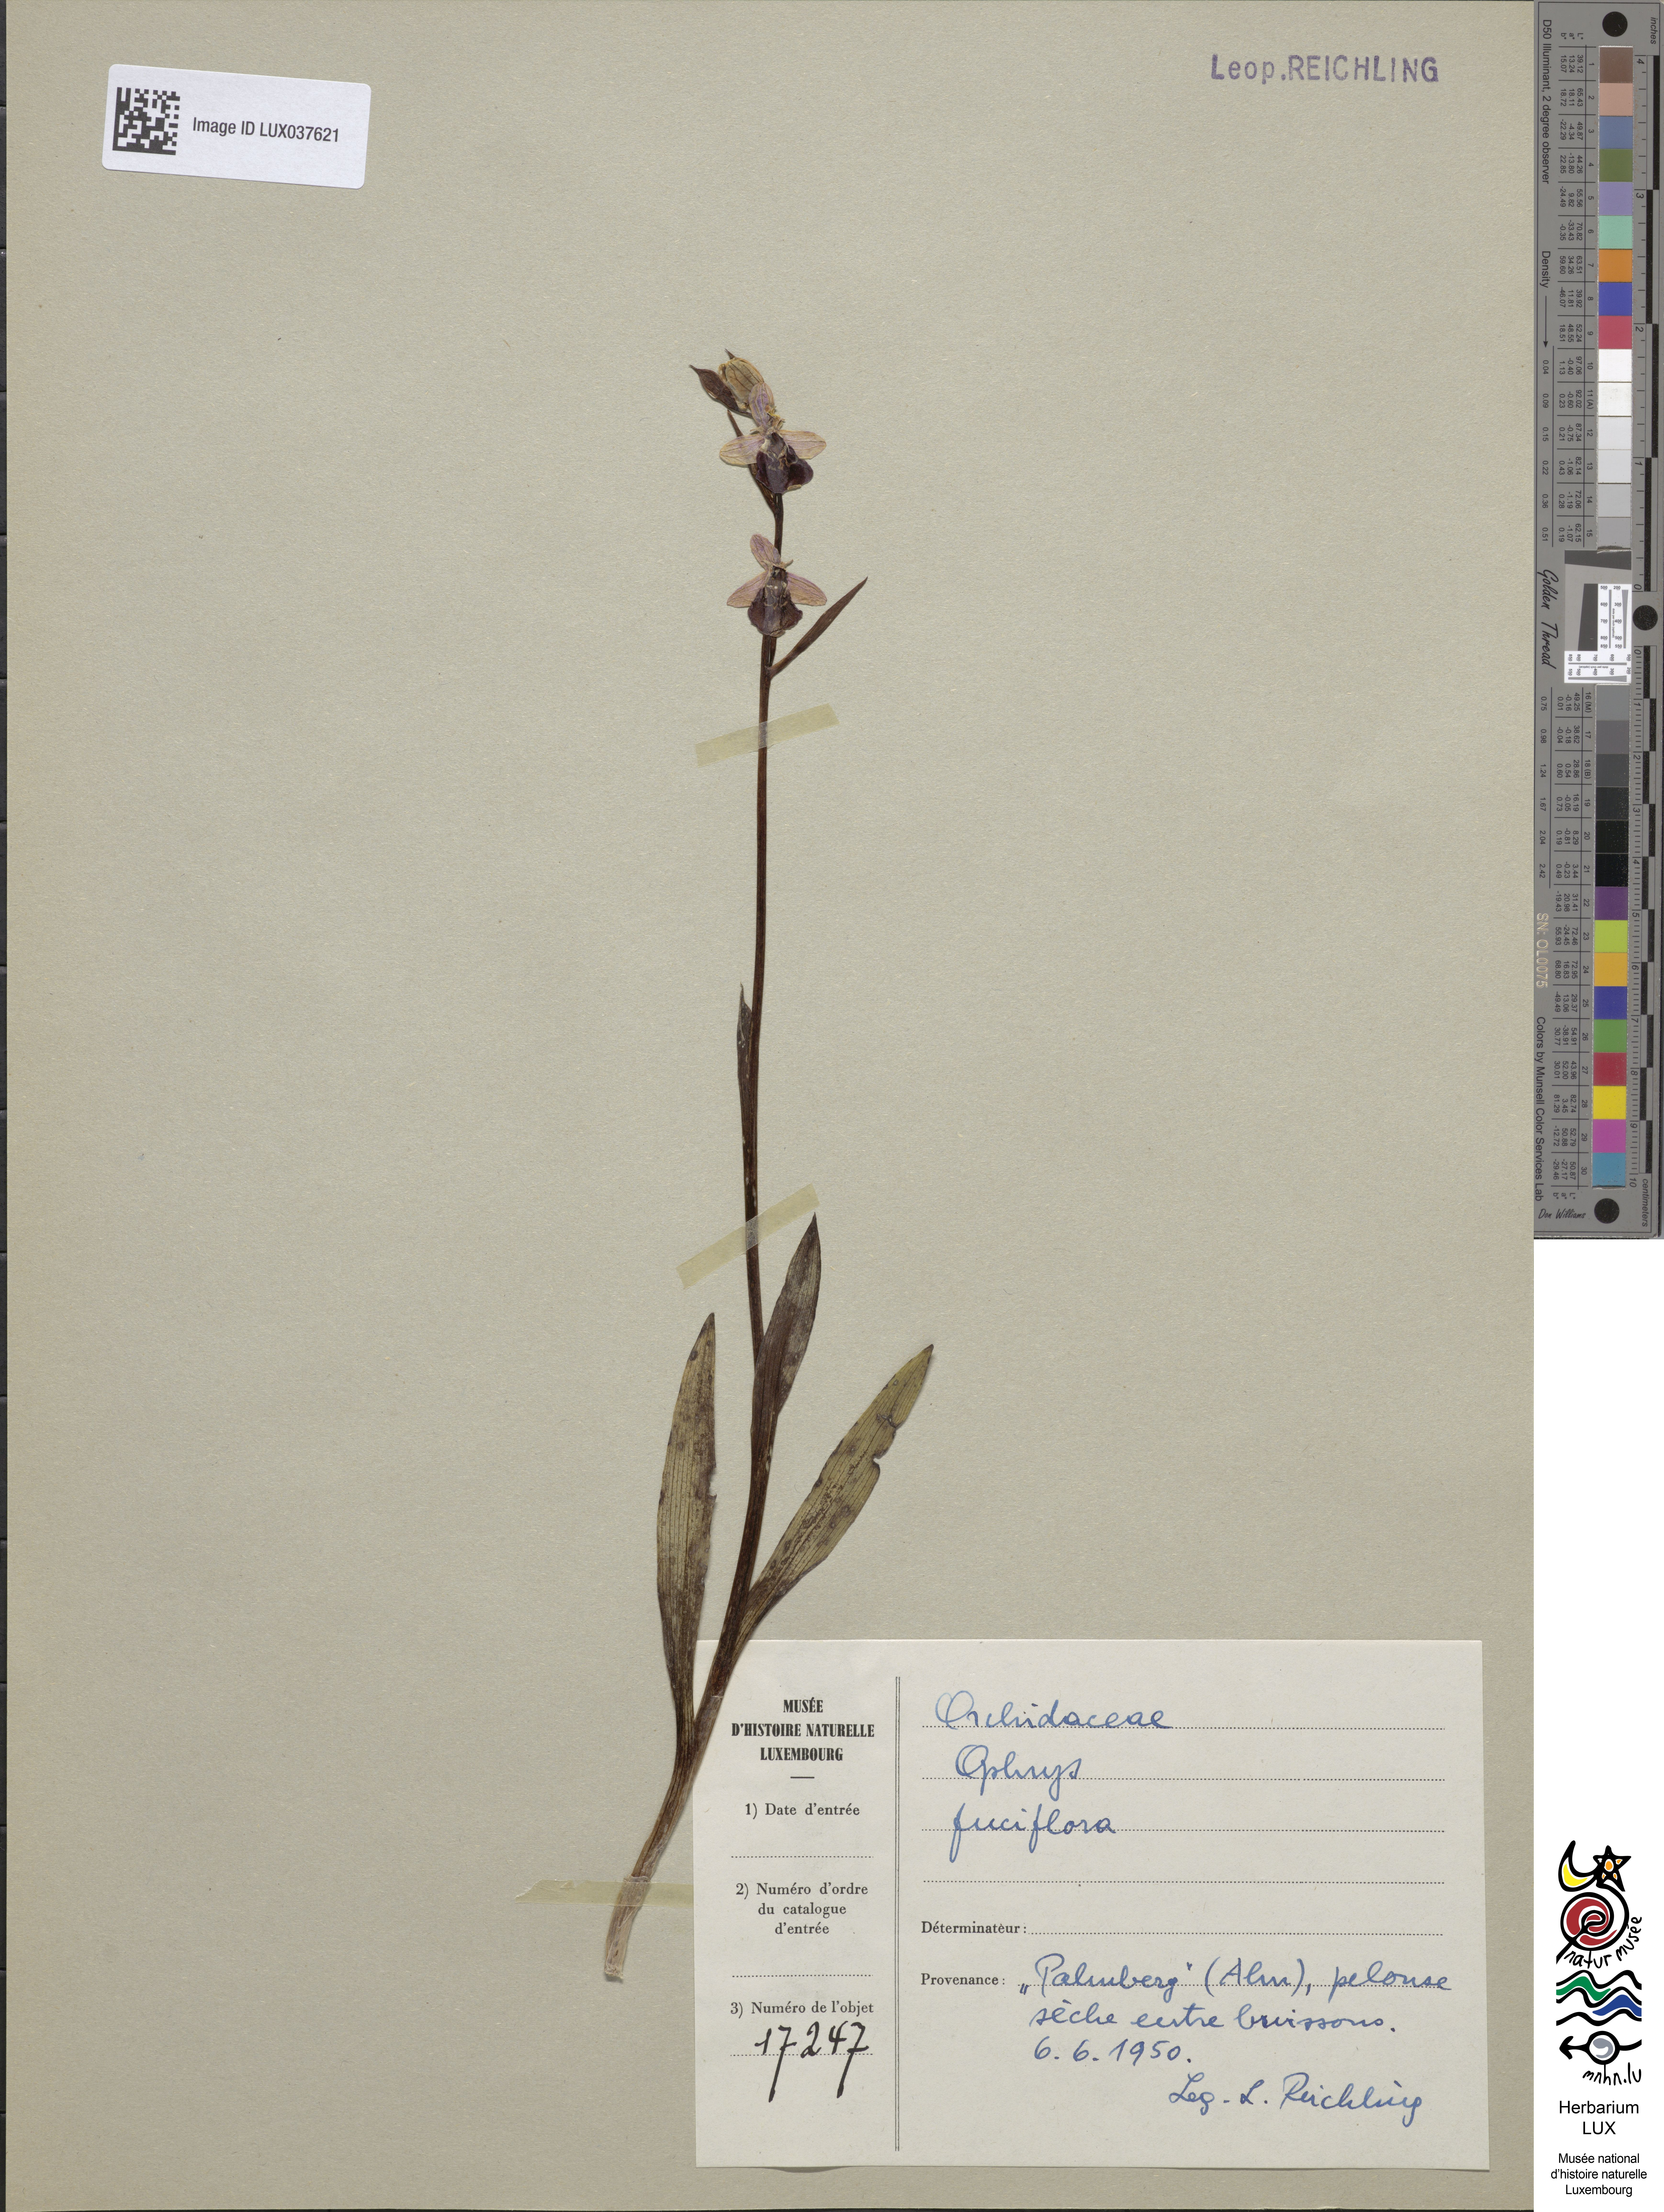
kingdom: Plantae
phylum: Tracheophyta
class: Liliopsida
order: Asparagales
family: Orchidaceae
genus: Ophrys
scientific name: Ophrys holosericea
